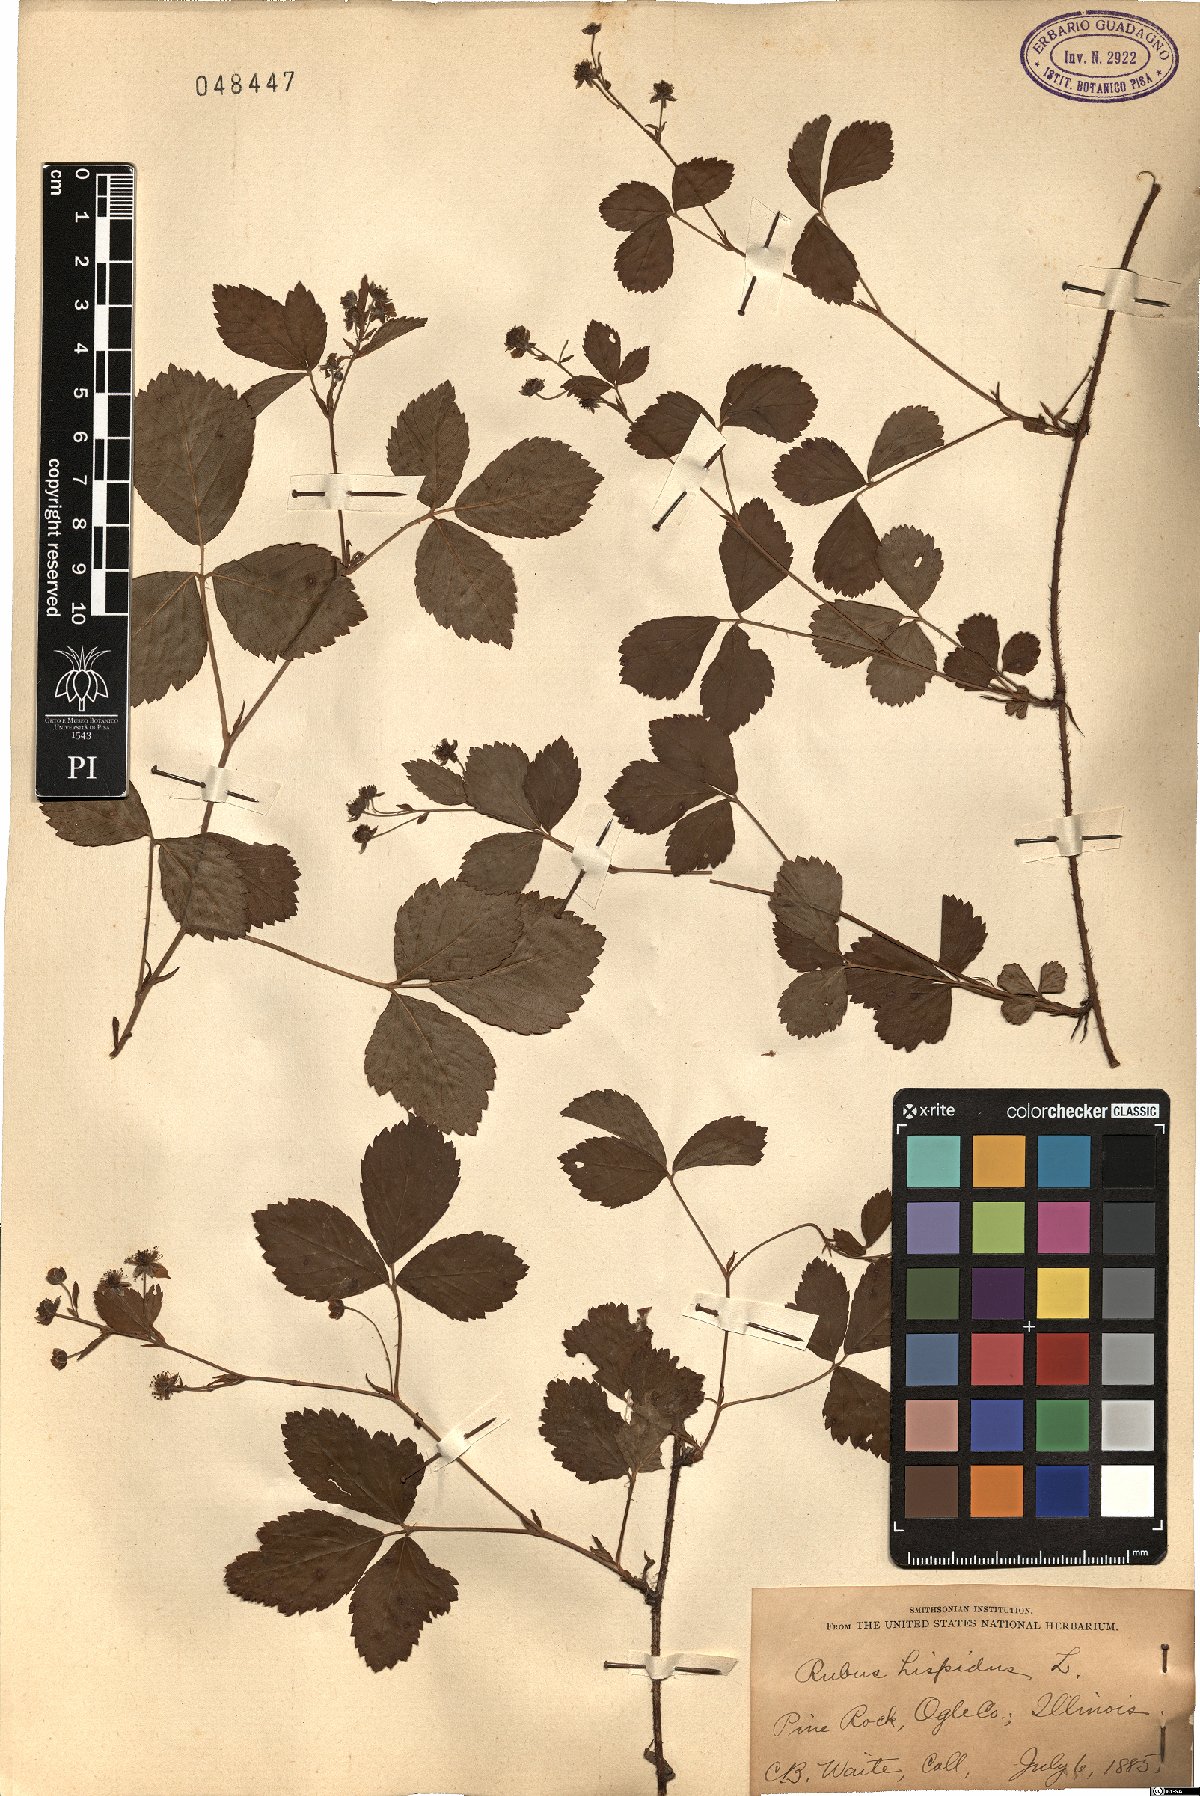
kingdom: Plantae
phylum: Tracheophyta
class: Magnoliopsida
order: Rosales
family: Rosaceae
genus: Rubus
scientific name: Rubus hispidus
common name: Running blackberry
